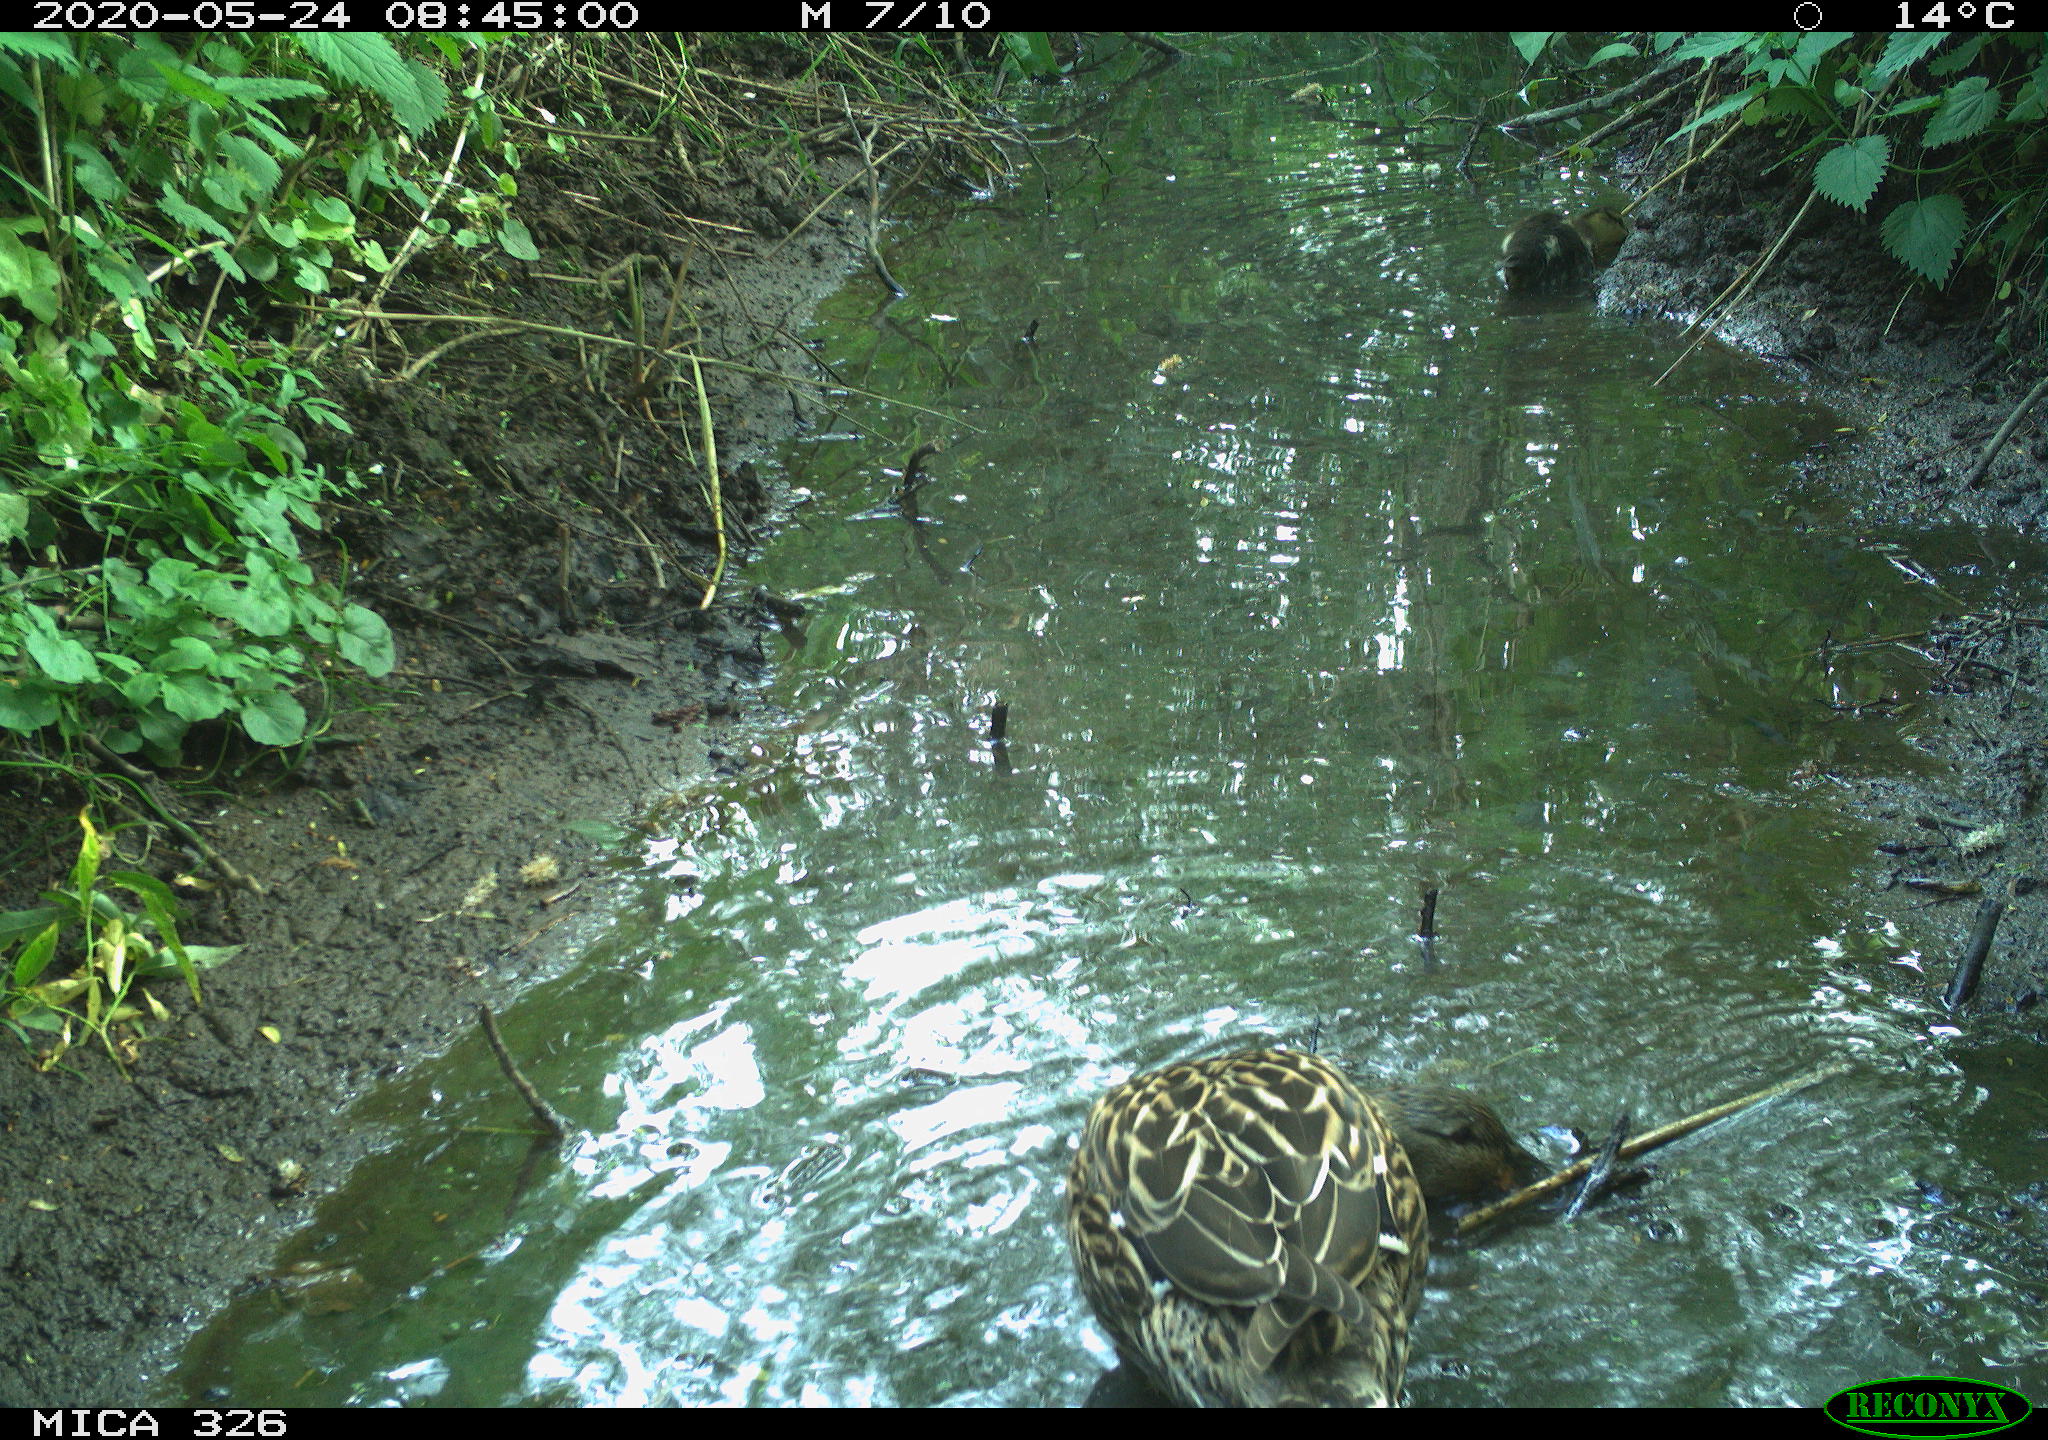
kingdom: Animalia
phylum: Chordata
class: Aves
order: Anseriformes
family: Anatidae
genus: Anas
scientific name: Anas platyrhynchos
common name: Mallard
